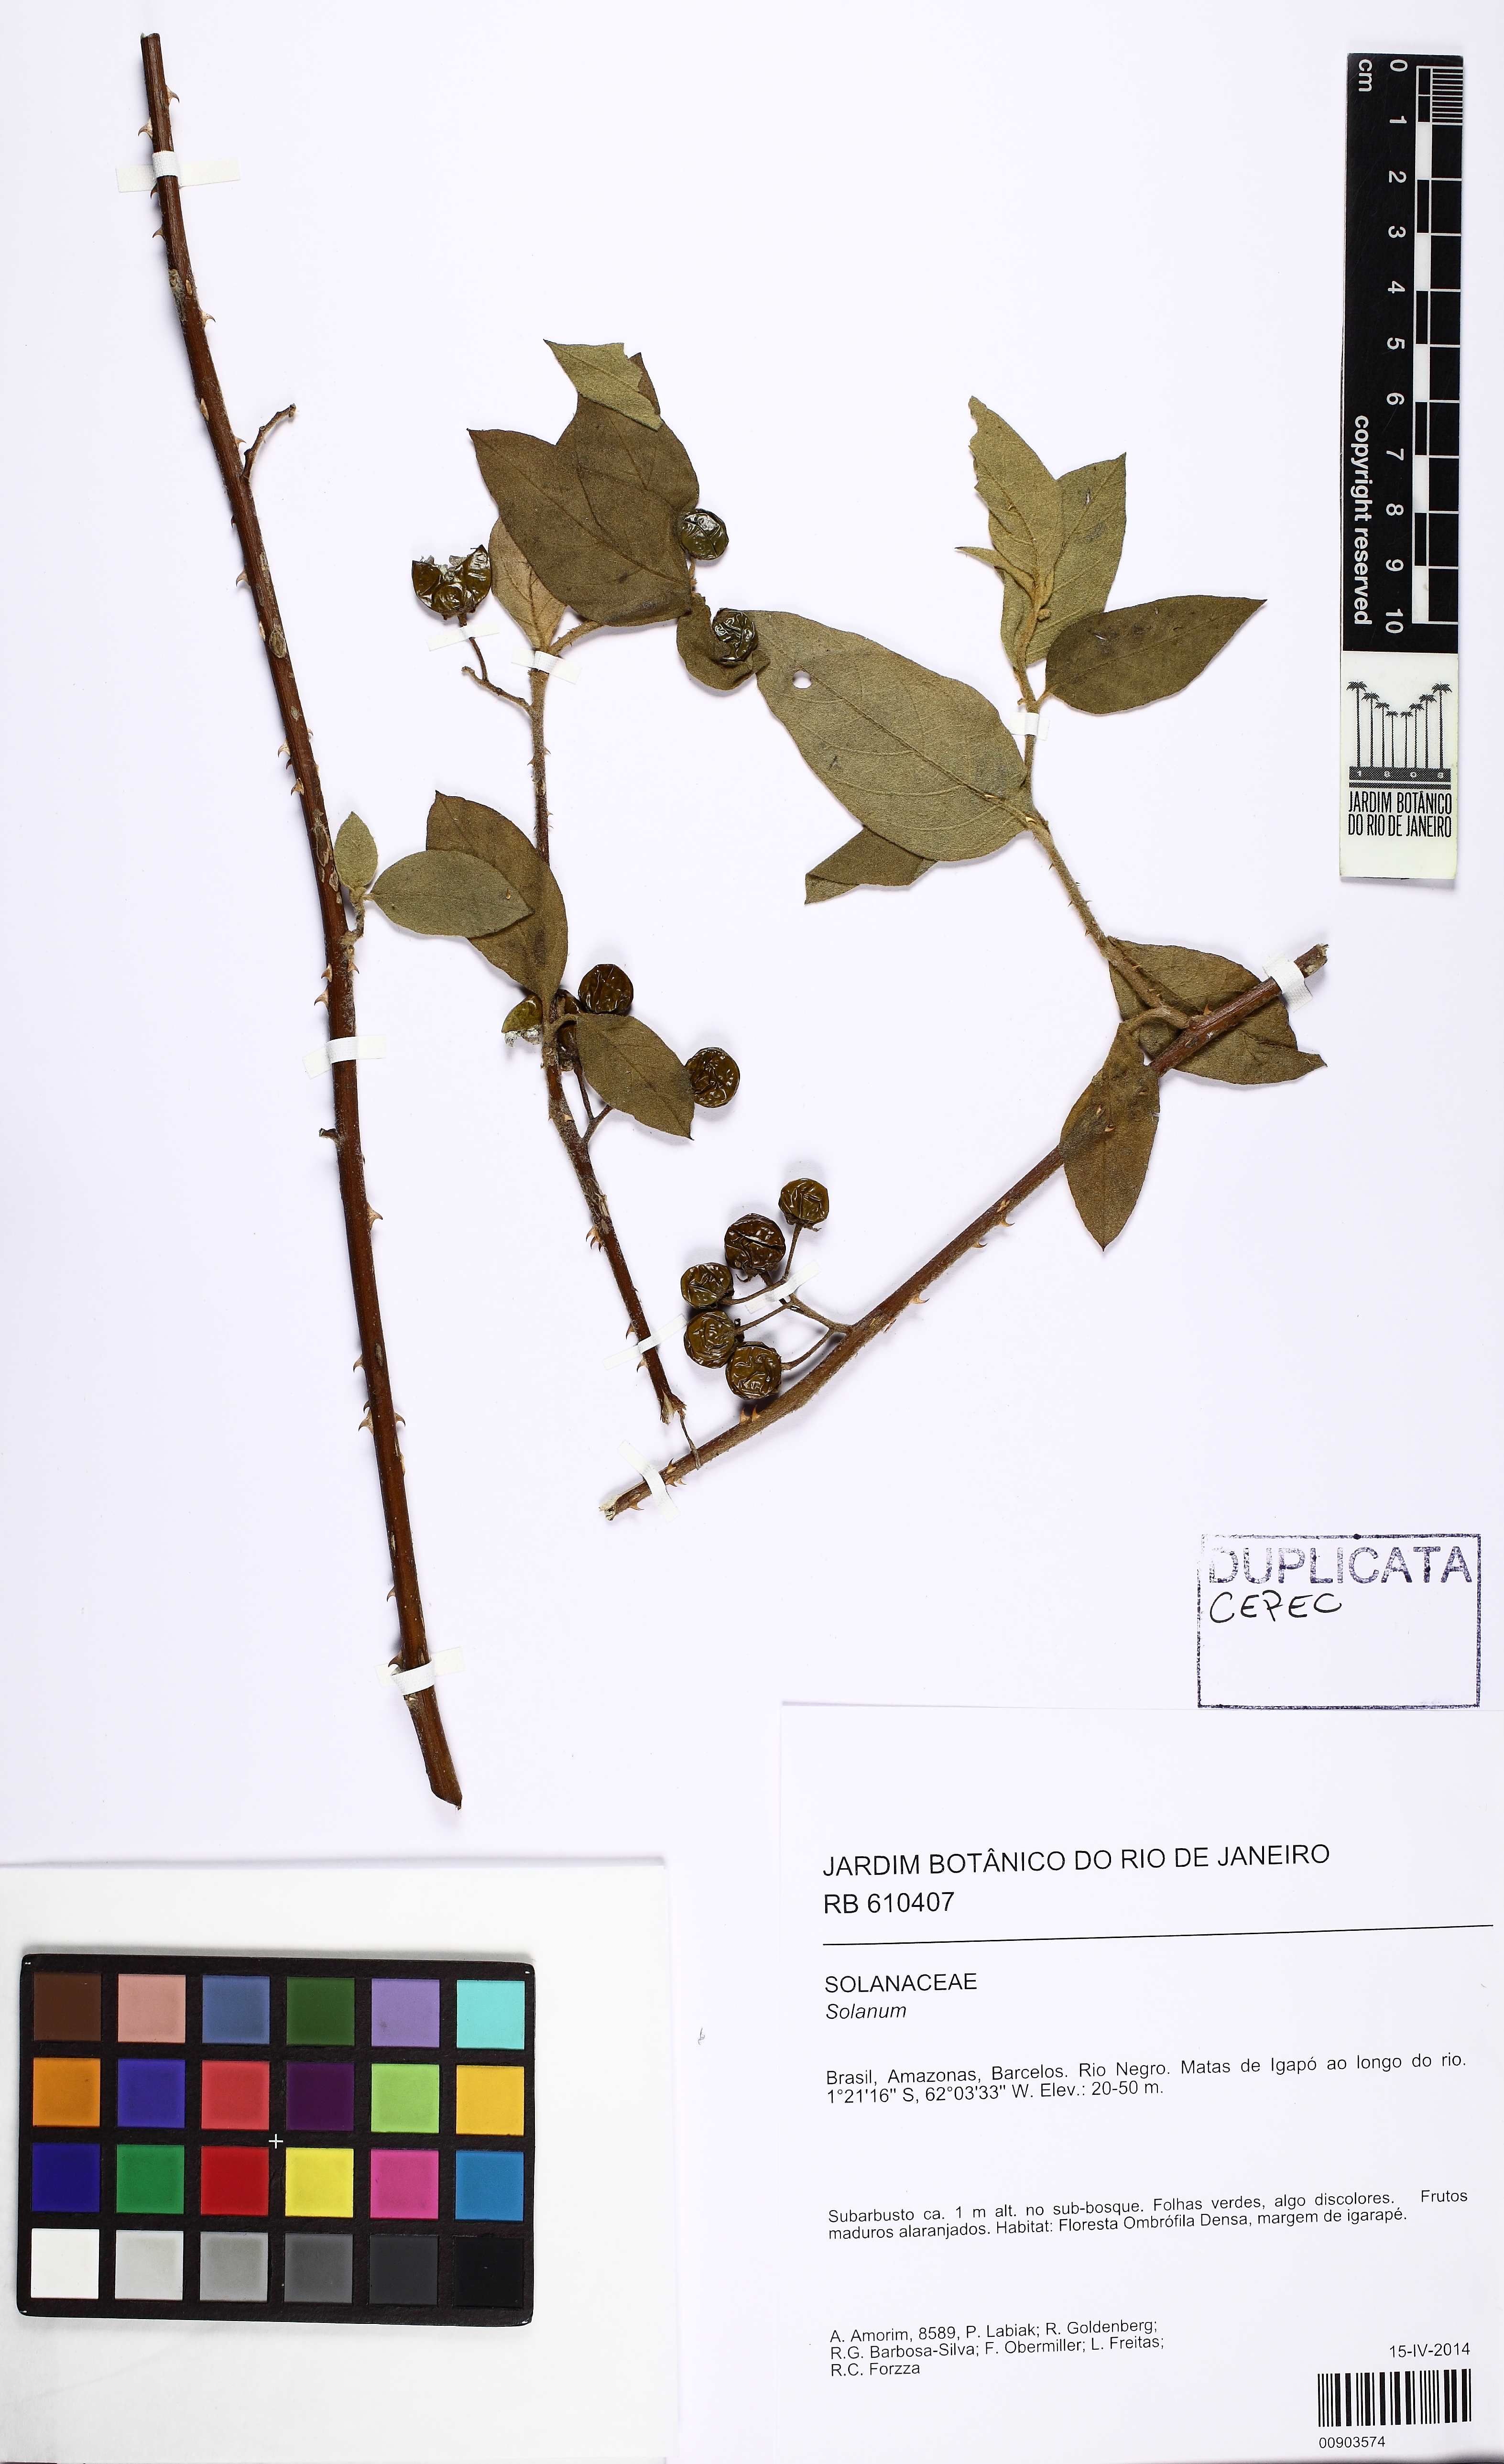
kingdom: Plantae
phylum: Tracheophyta
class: Magnoliopsida
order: Solanales
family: Solanaceae
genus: Solanum
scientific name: Solanum apaporanum
